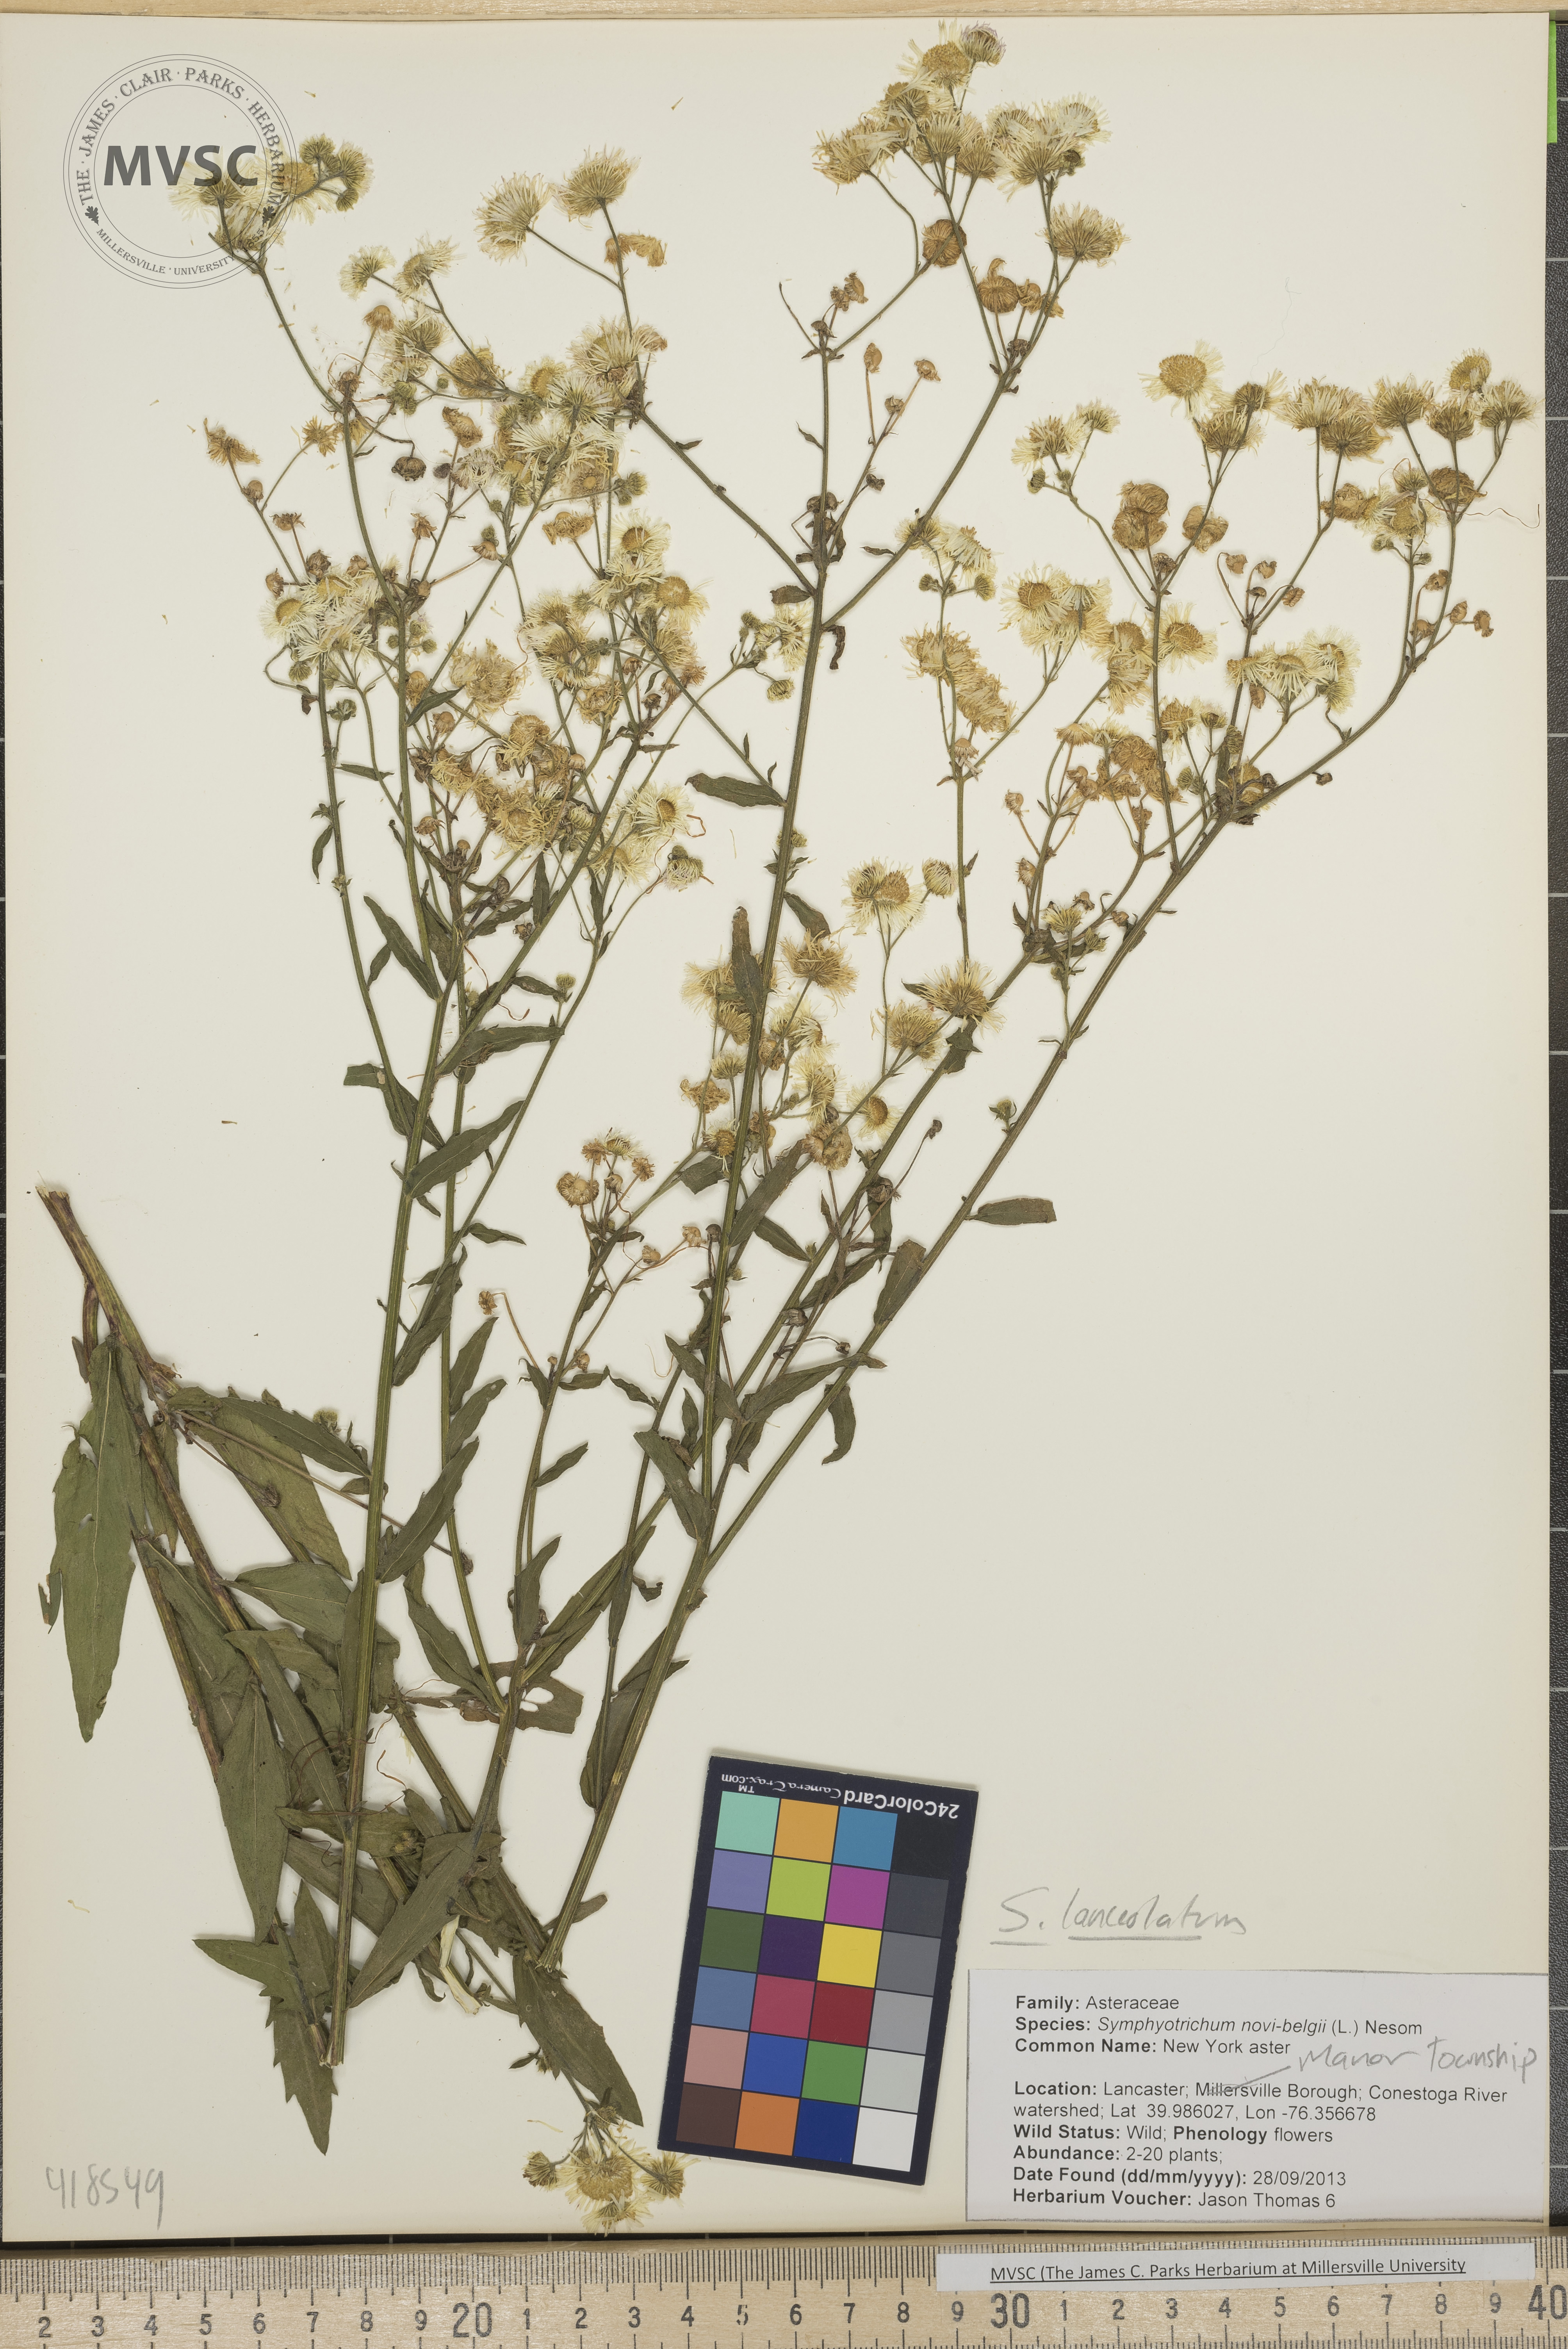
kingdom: Plantae
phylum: Tracheophyta
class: Magnoliopsida
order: Asterales
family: Asteraceae
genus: Symphyotrichum
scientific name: Symphyotrichum lanceolatum
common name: Aster
